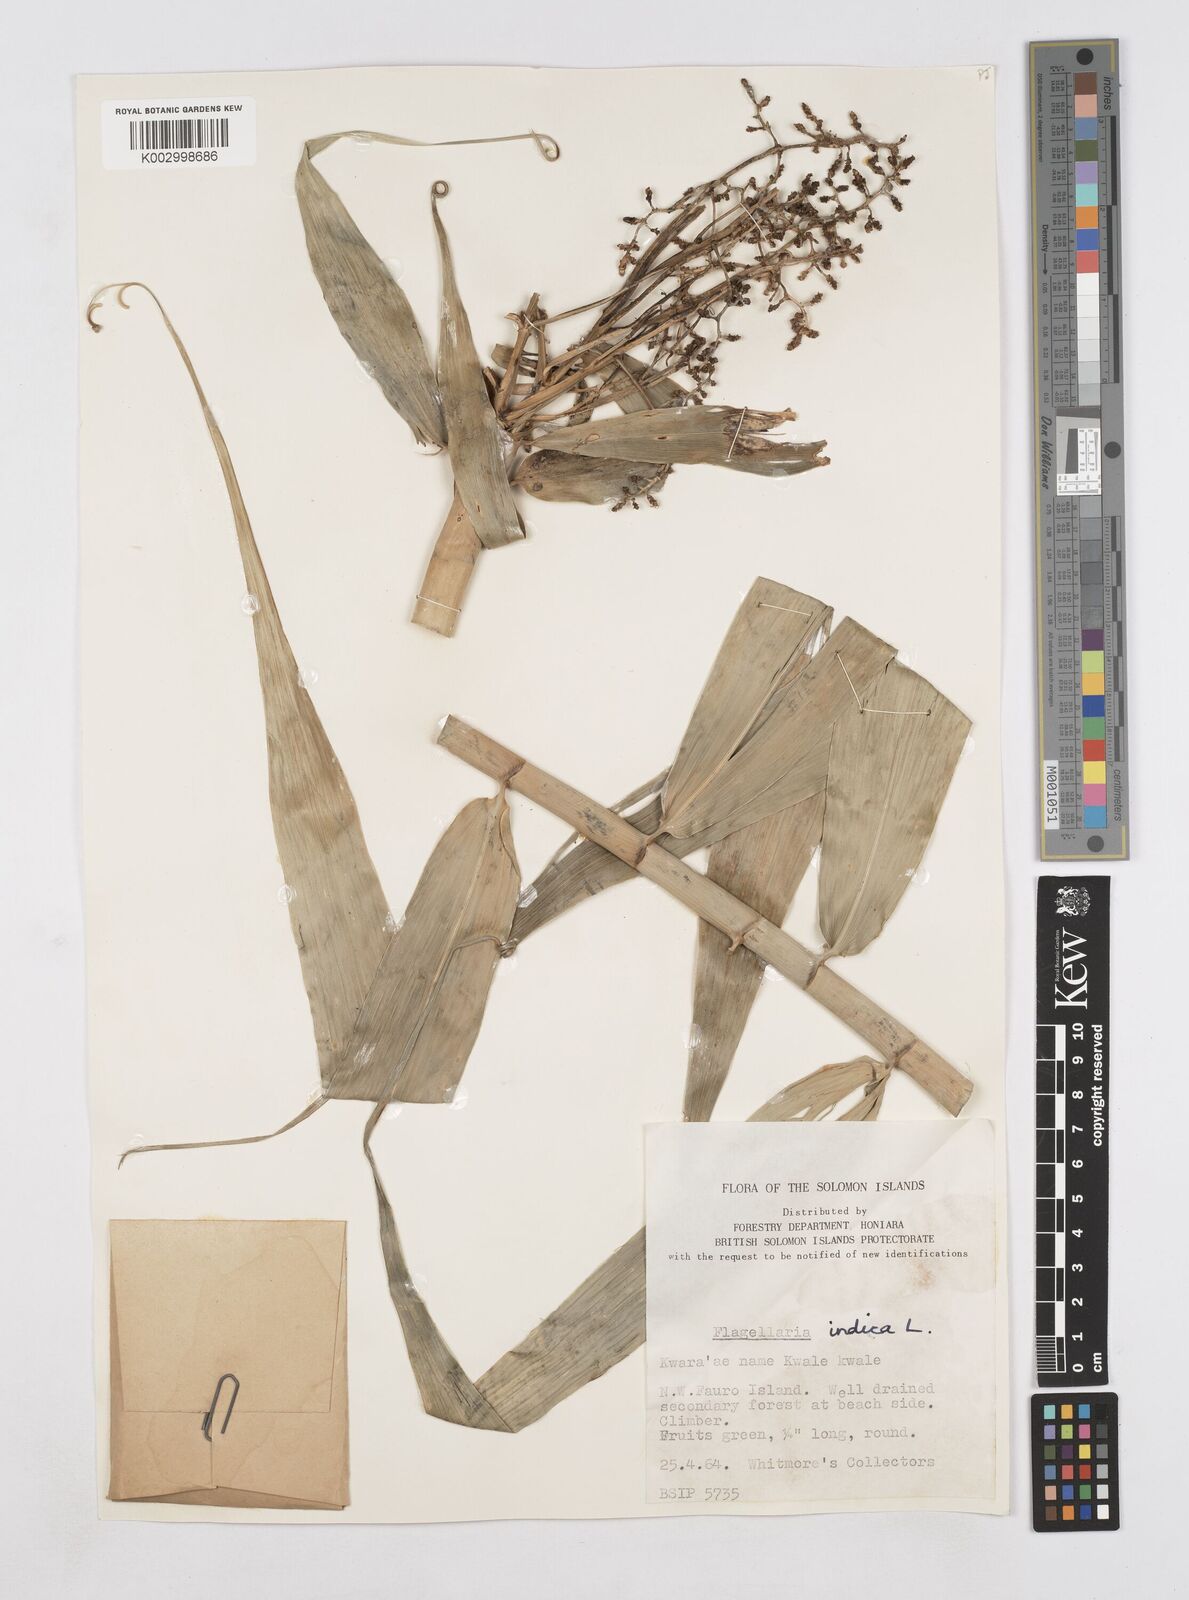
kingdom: Plantae
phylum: Tracheophyta
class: Liliopsida
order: Poales
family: Flagellariaceae
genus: Flagellaria
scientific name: Flagellaria indica
